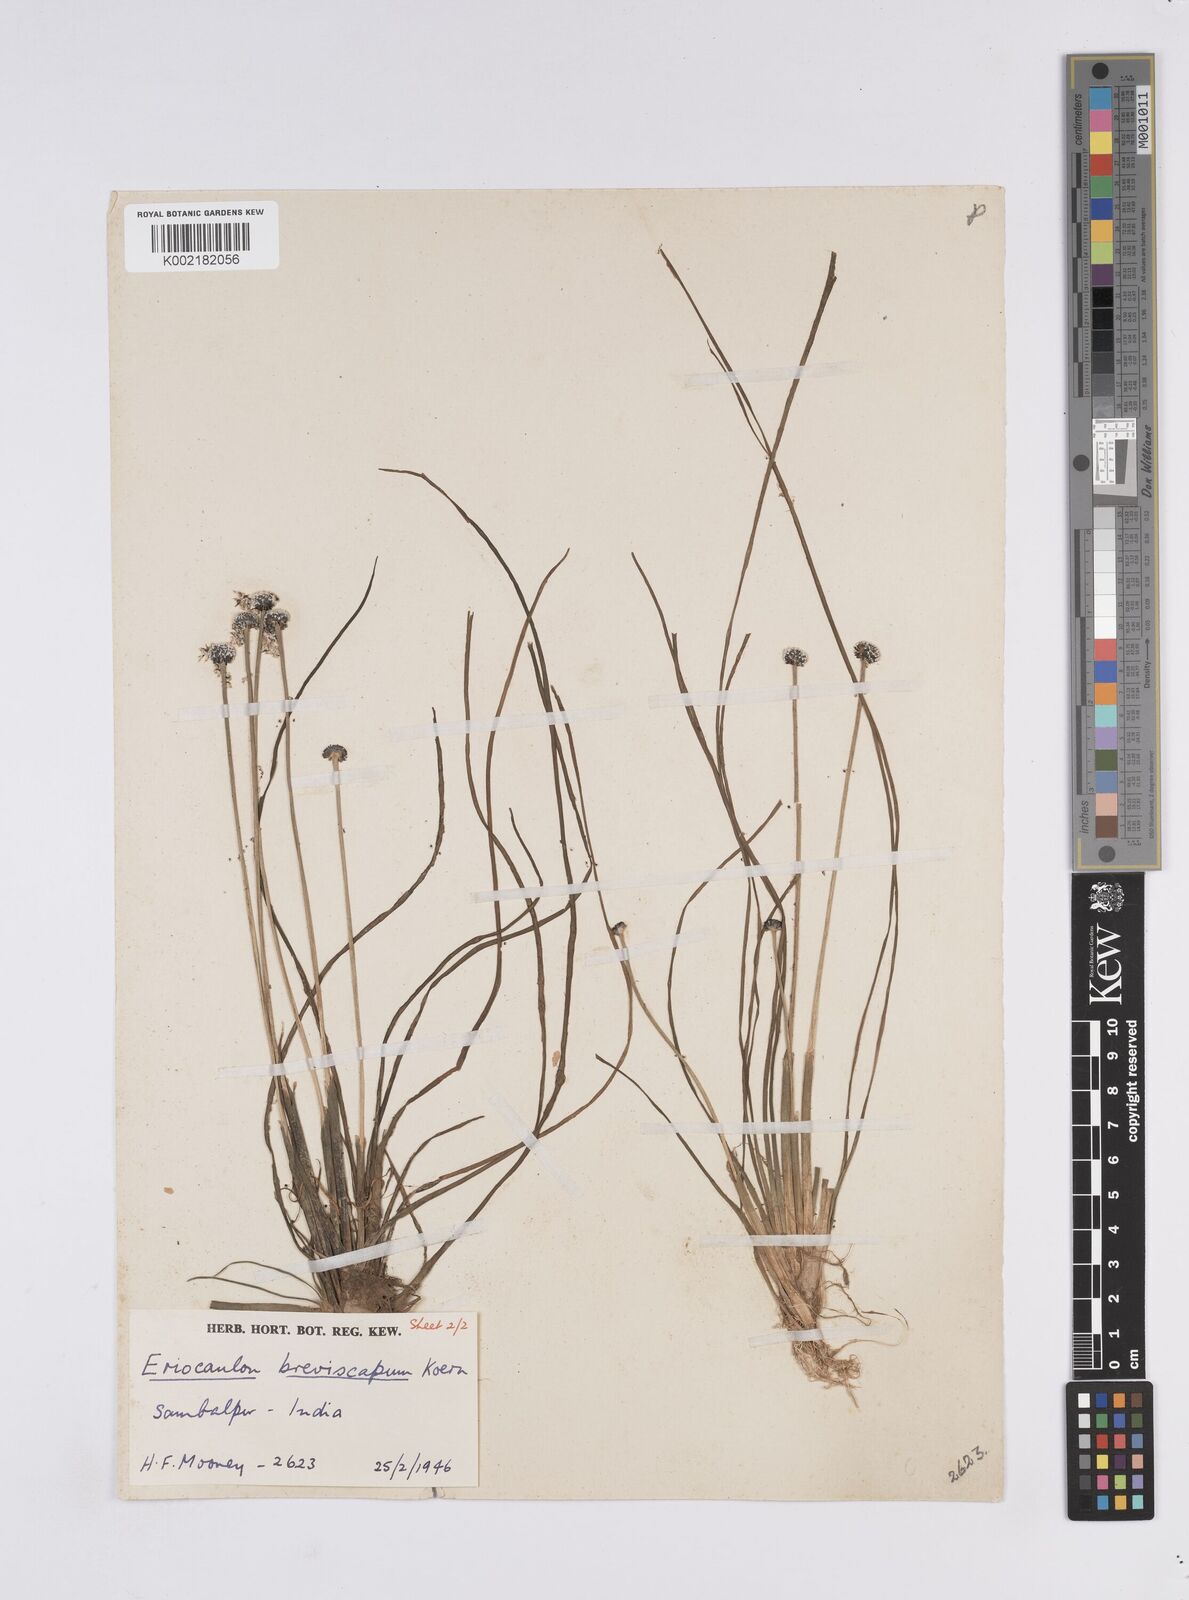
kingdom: Plantae
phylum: Tracheophyta
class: Liliopsida
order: Poales
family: Eriocaulaceae
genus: Eriocaulon
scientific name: Eriocaulon breviscapum
